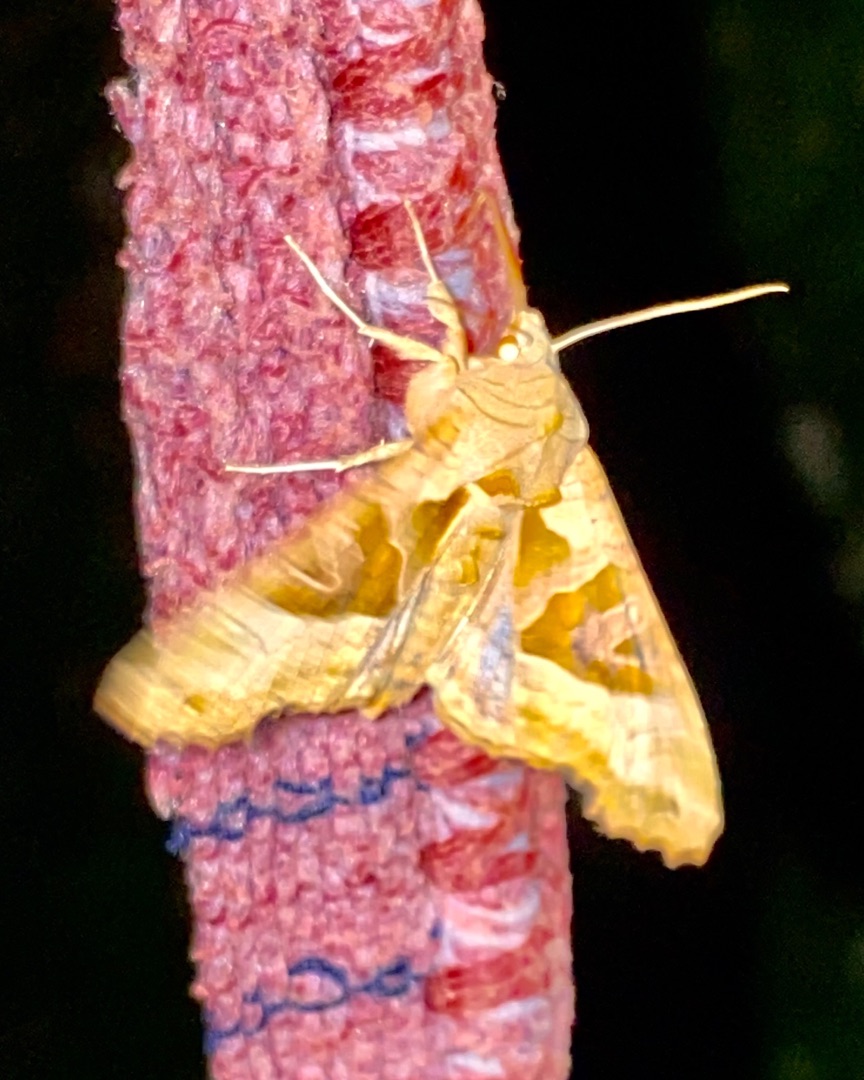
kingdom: Animalia
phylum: Arthropoda
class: Insecta
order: Lepidoptera
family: Noctuidae
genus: Phlogophora
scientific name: Phlogophora meticulosa
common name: Agatugle
